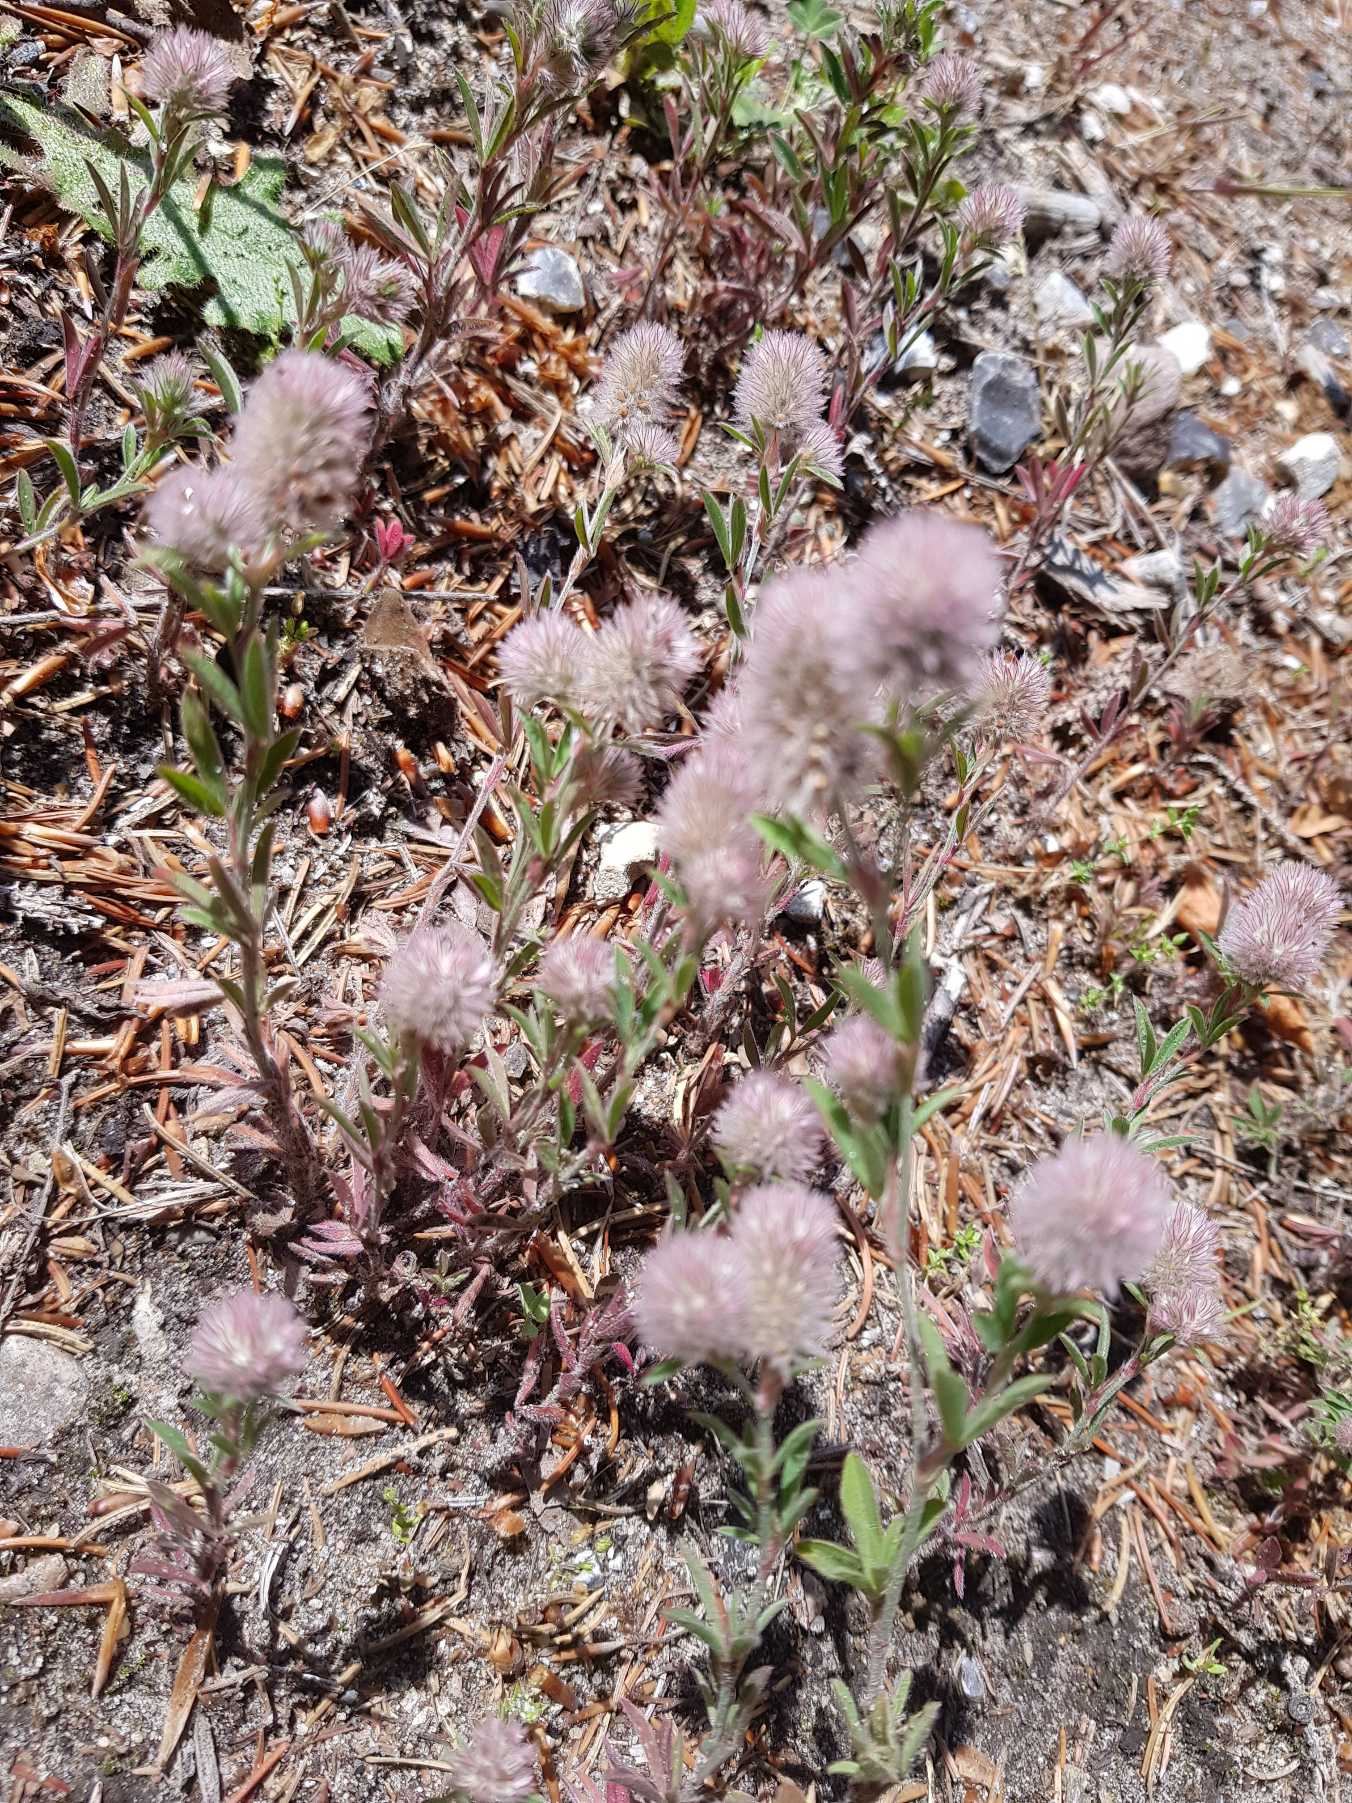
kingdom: Plantae
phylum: Tracheophyta
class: Magnoliopsida
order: Fabales
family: Fabaceae
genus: Trifolium
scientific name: Trifolium arvense
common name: Hare-kløver
